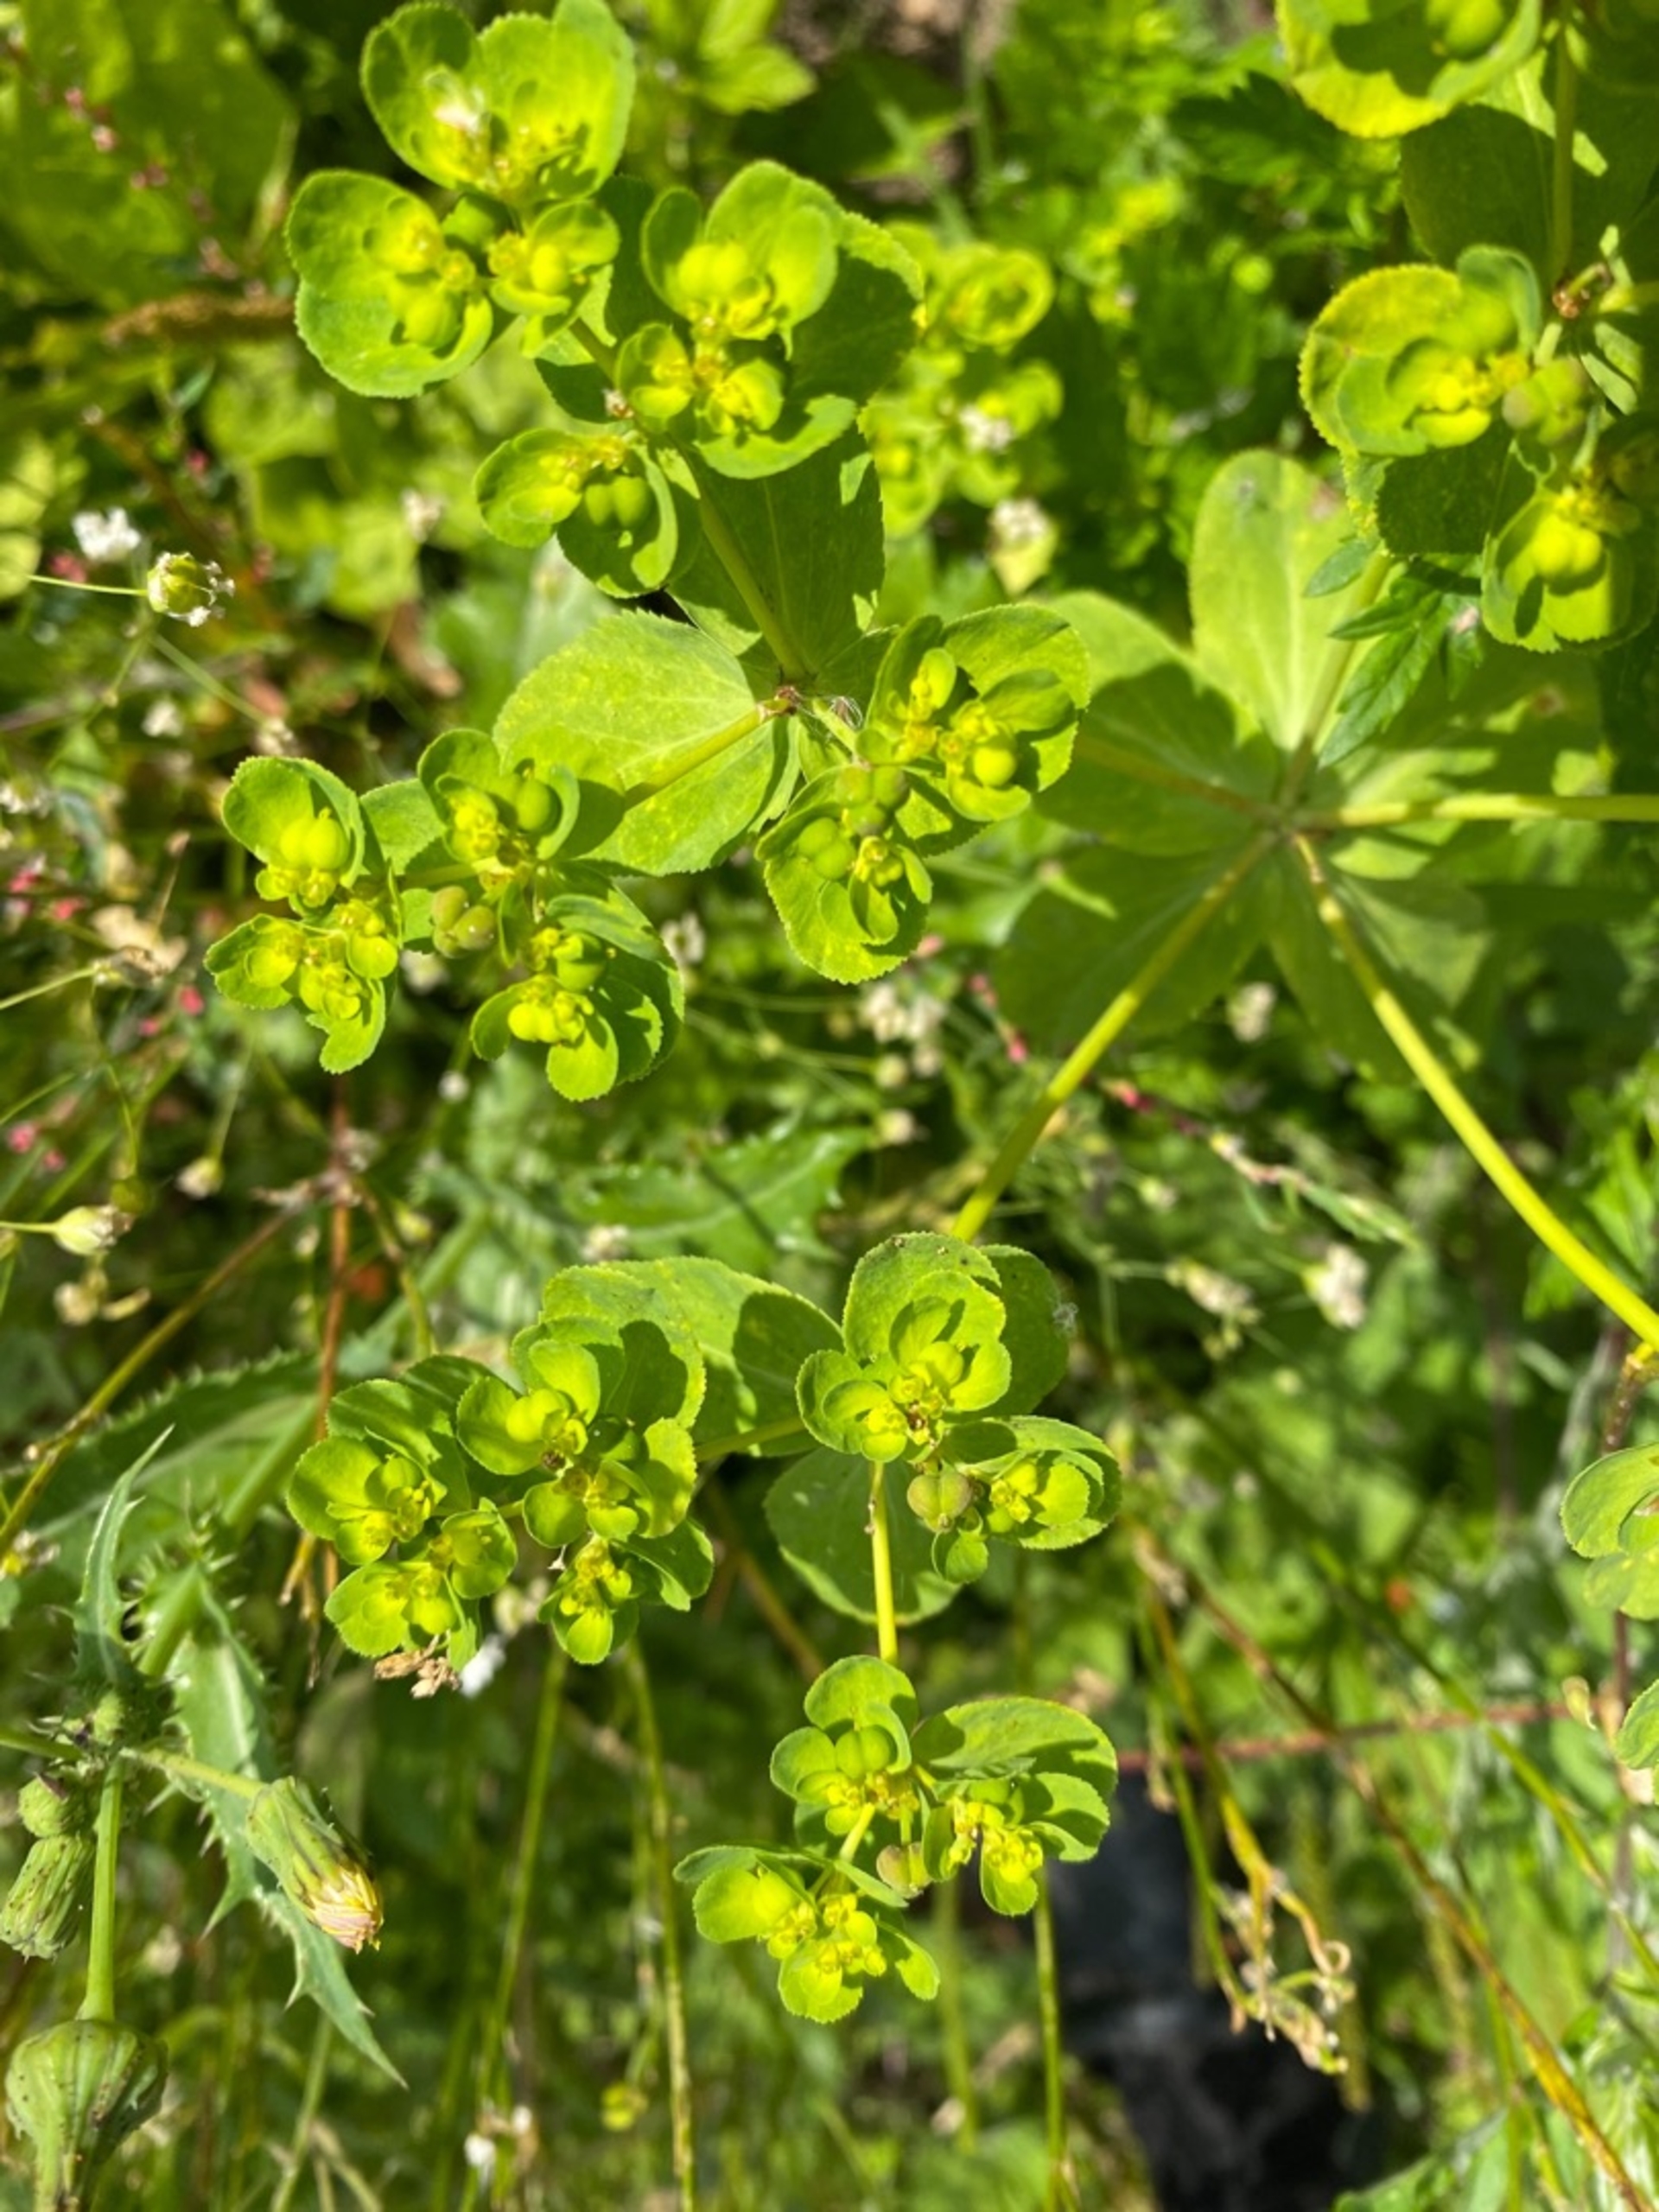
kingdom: Plantae
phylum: Tracheophyta
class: Magnoliopsida
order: Malpighiales
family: Euphorbiaceae
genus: Euphorbia
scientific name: Euphorbia helioscopia
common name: Skærm-vortemælk
